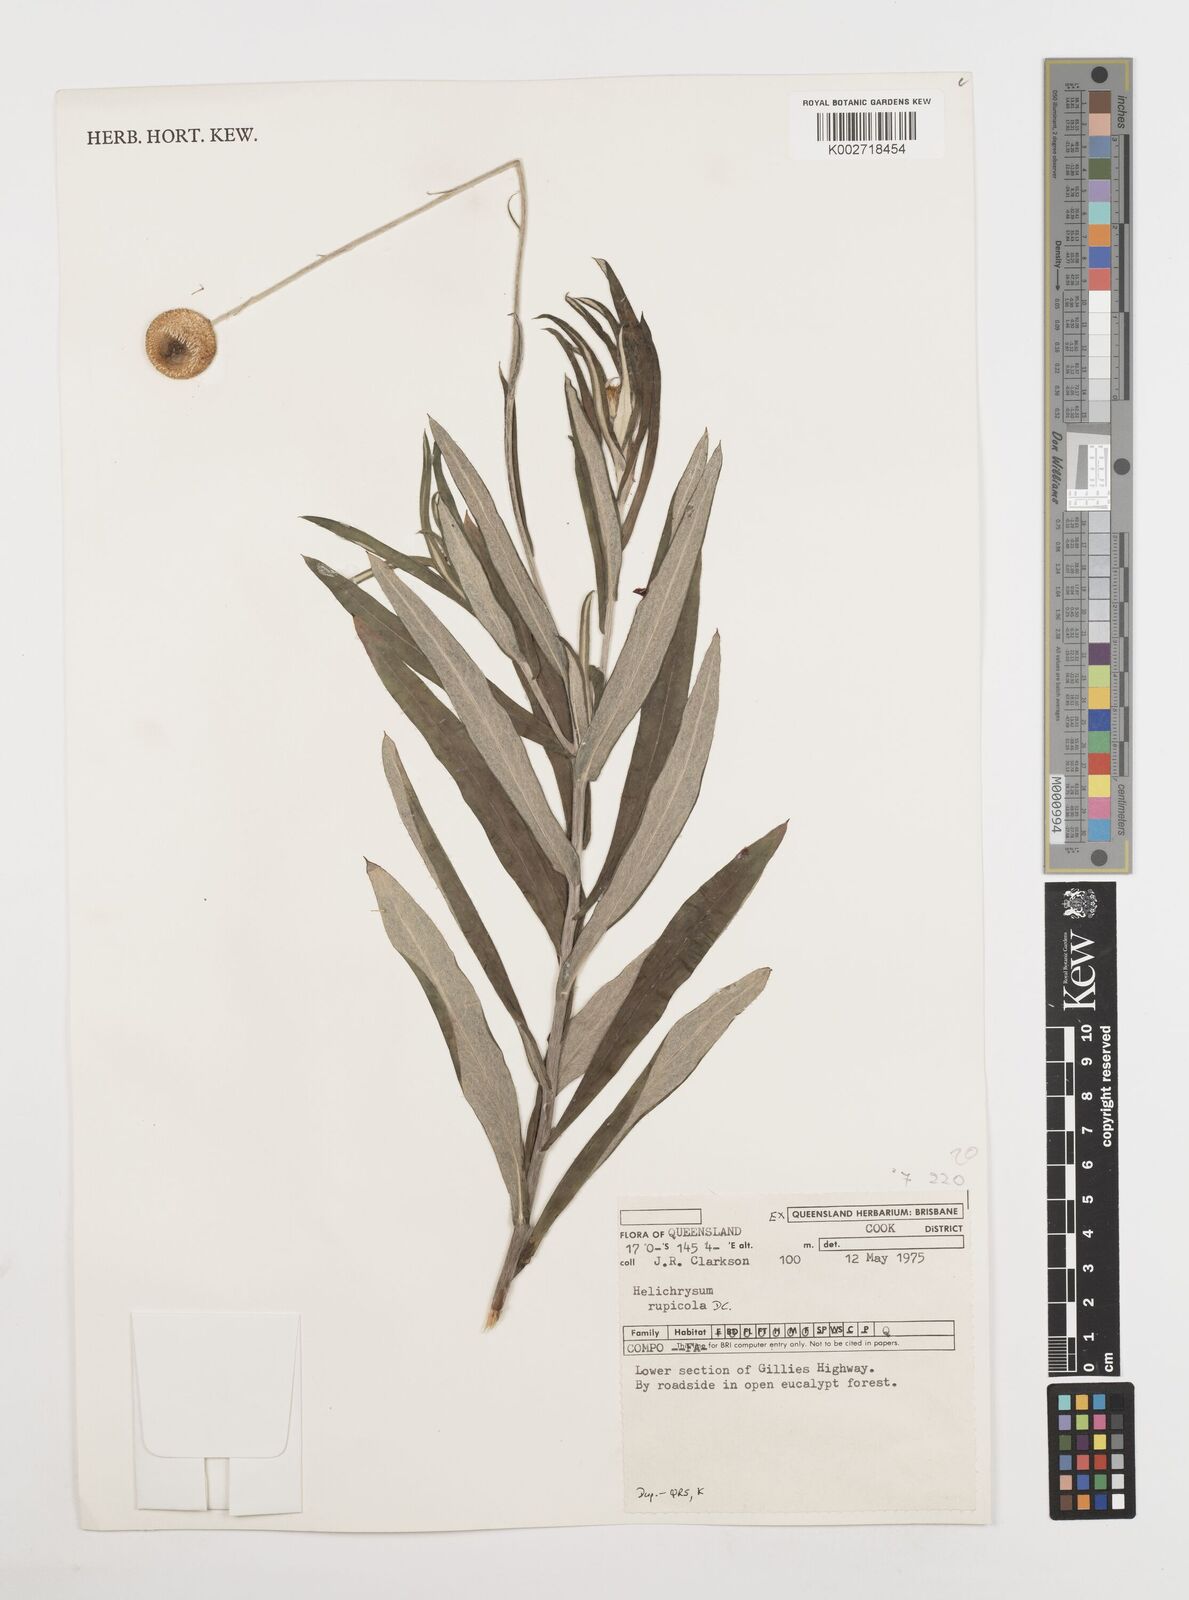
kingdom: Plantae
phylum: Tracheophyta
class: Magnoliopsida
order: Asterales
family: Asteraceae
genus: Coronidium
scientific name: Coronidium rupicola
